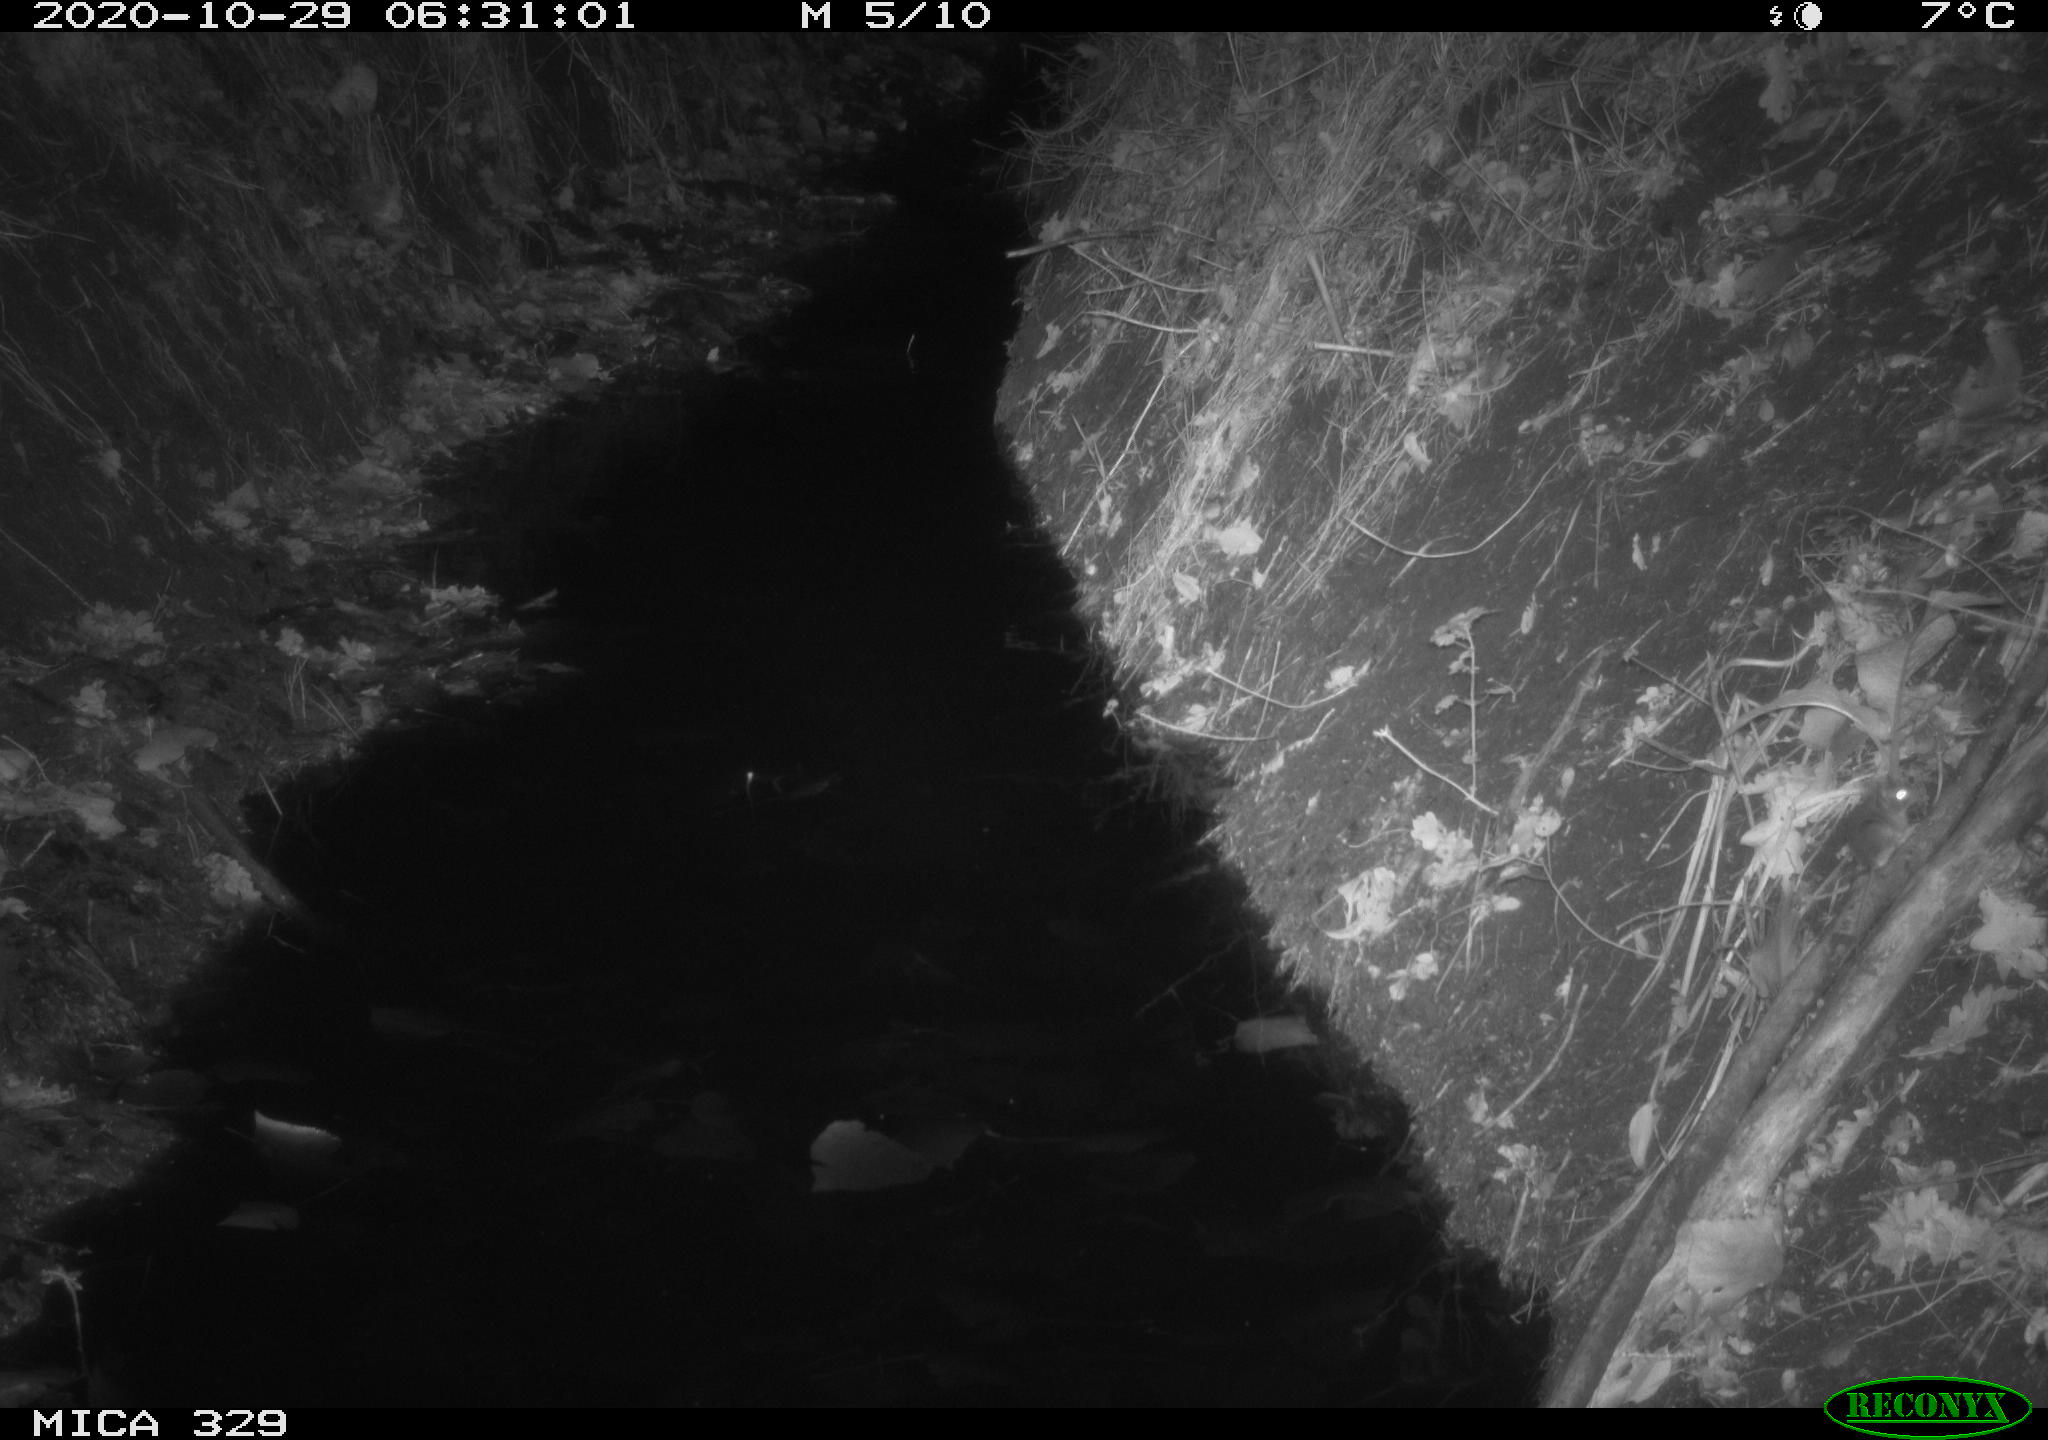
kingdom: Animalia
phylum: Chordata
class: Mammalia
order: Rodentia
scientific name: Rodentia
